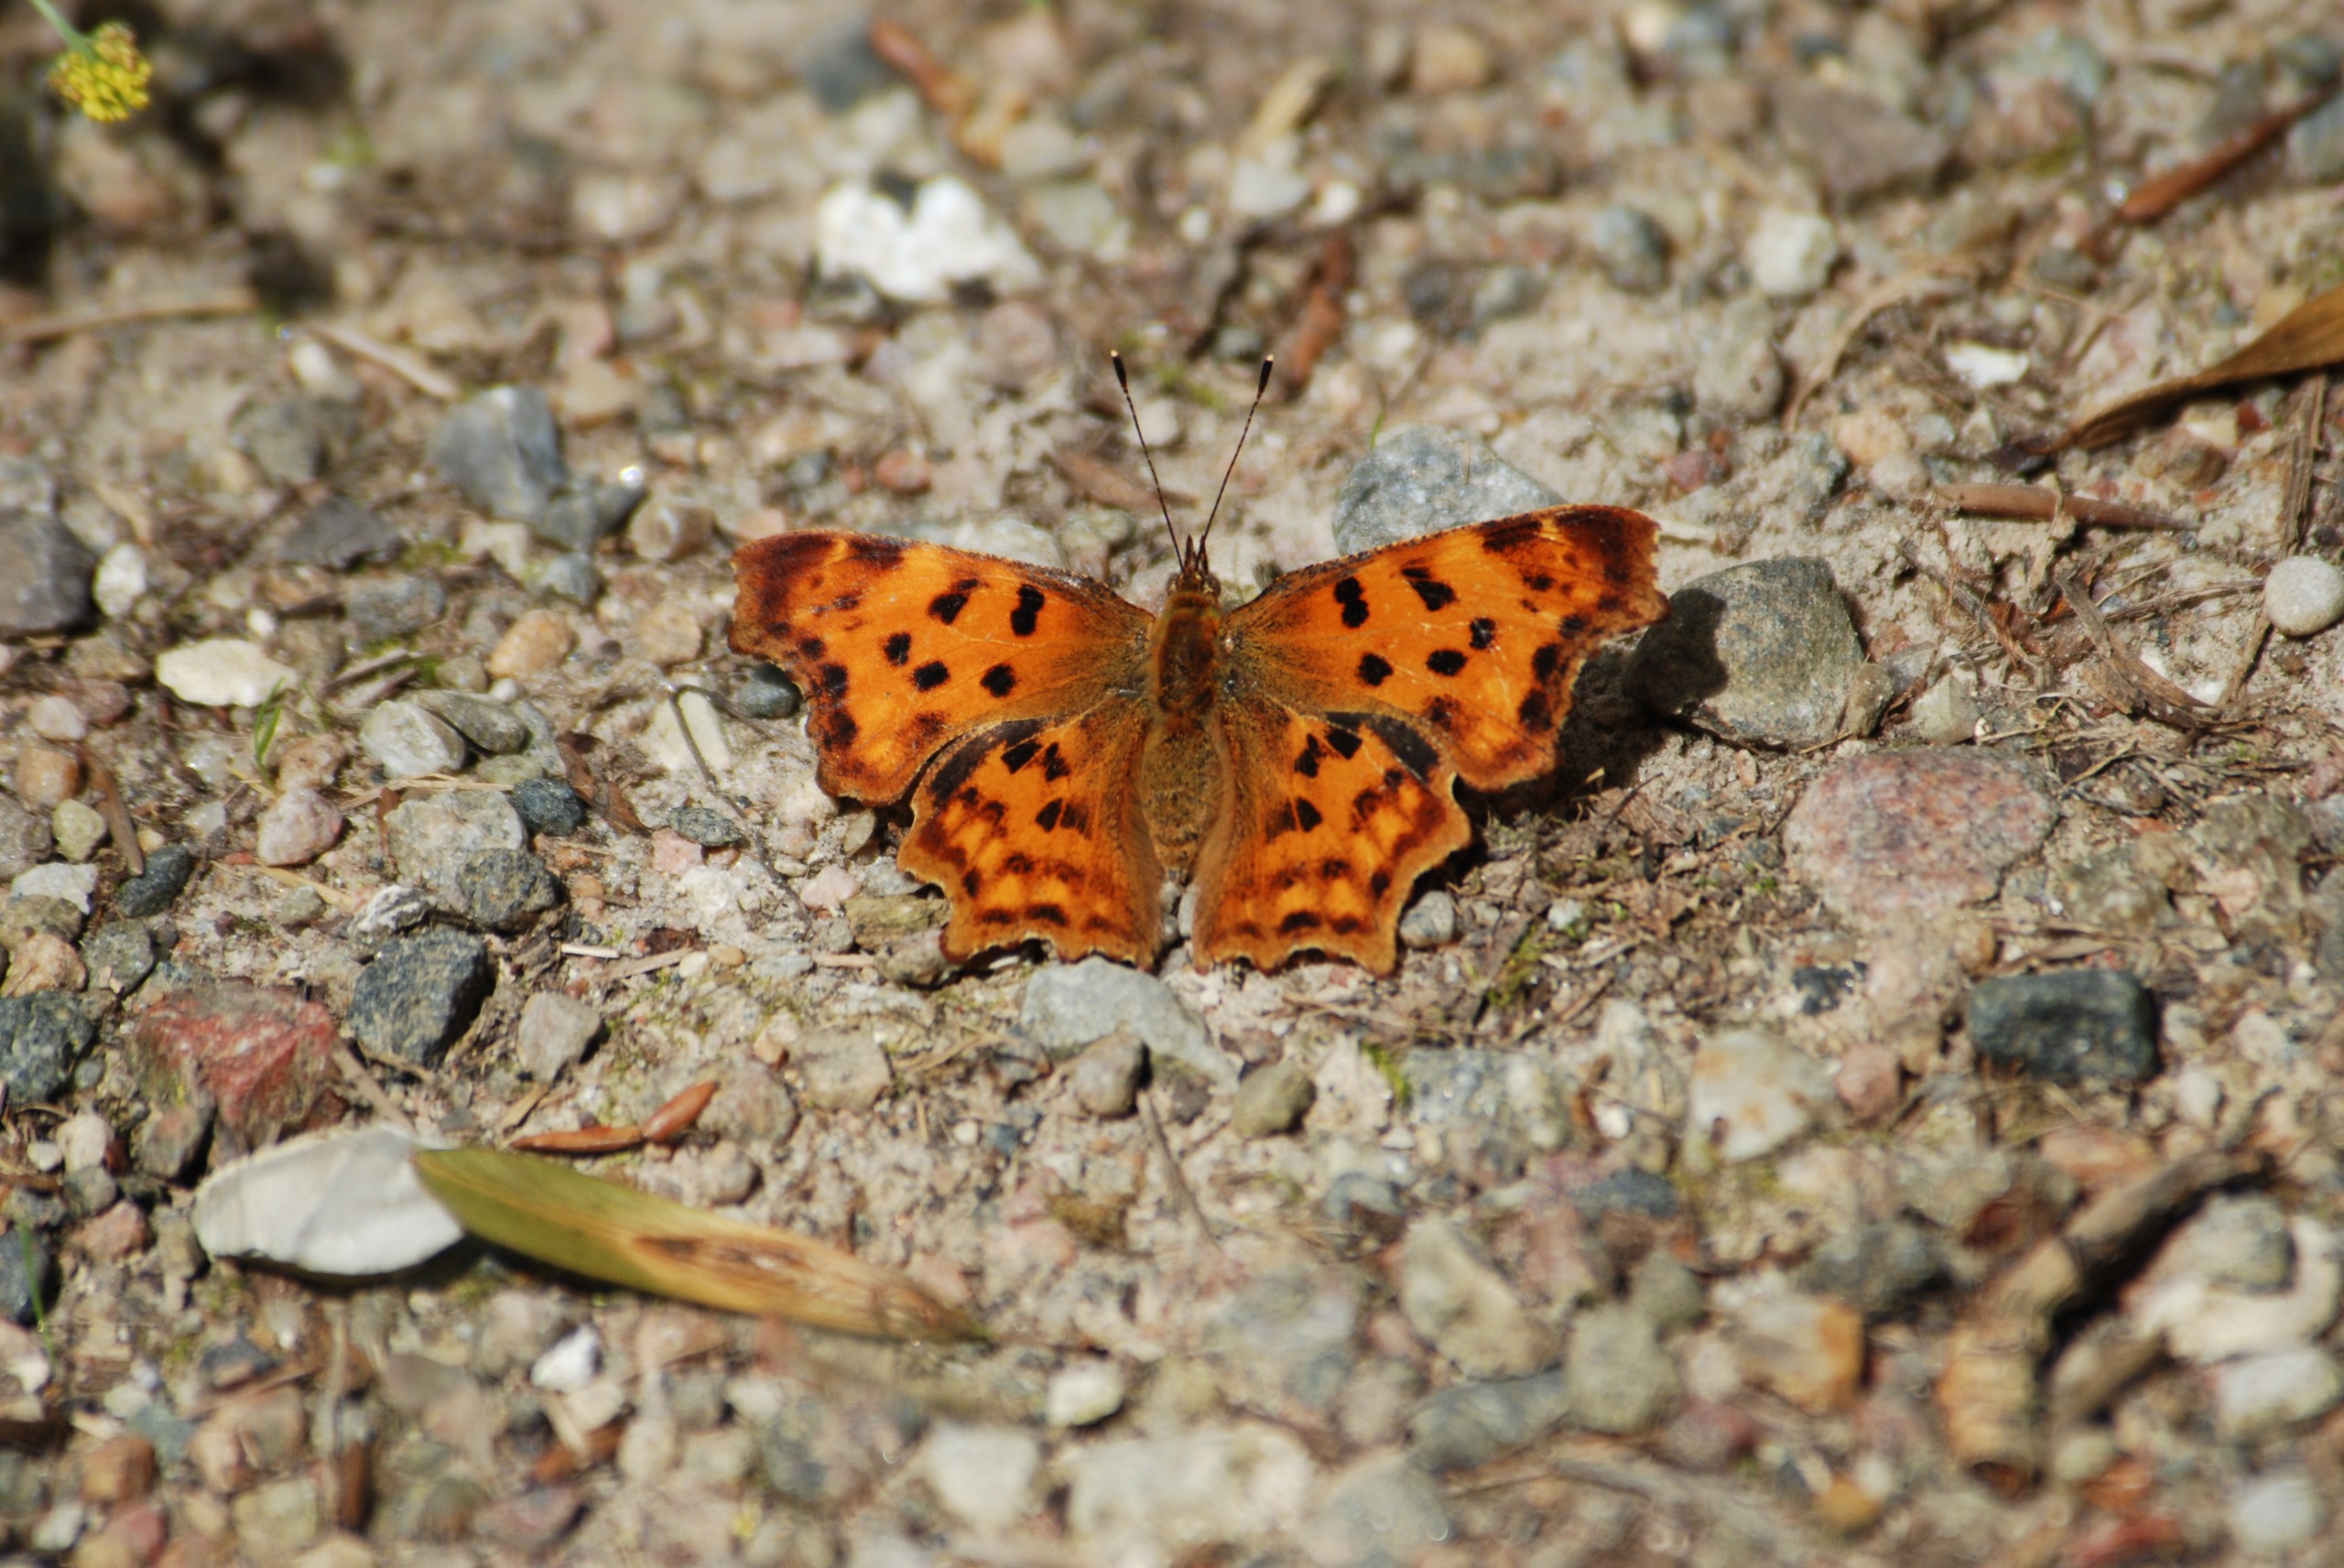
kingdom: Animalia
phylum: Arthropoda
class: Insecta
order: Lepidoptera
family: Nymphalidae
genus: Polygonia
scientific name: Polygonia c-album
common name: Det hvide C
